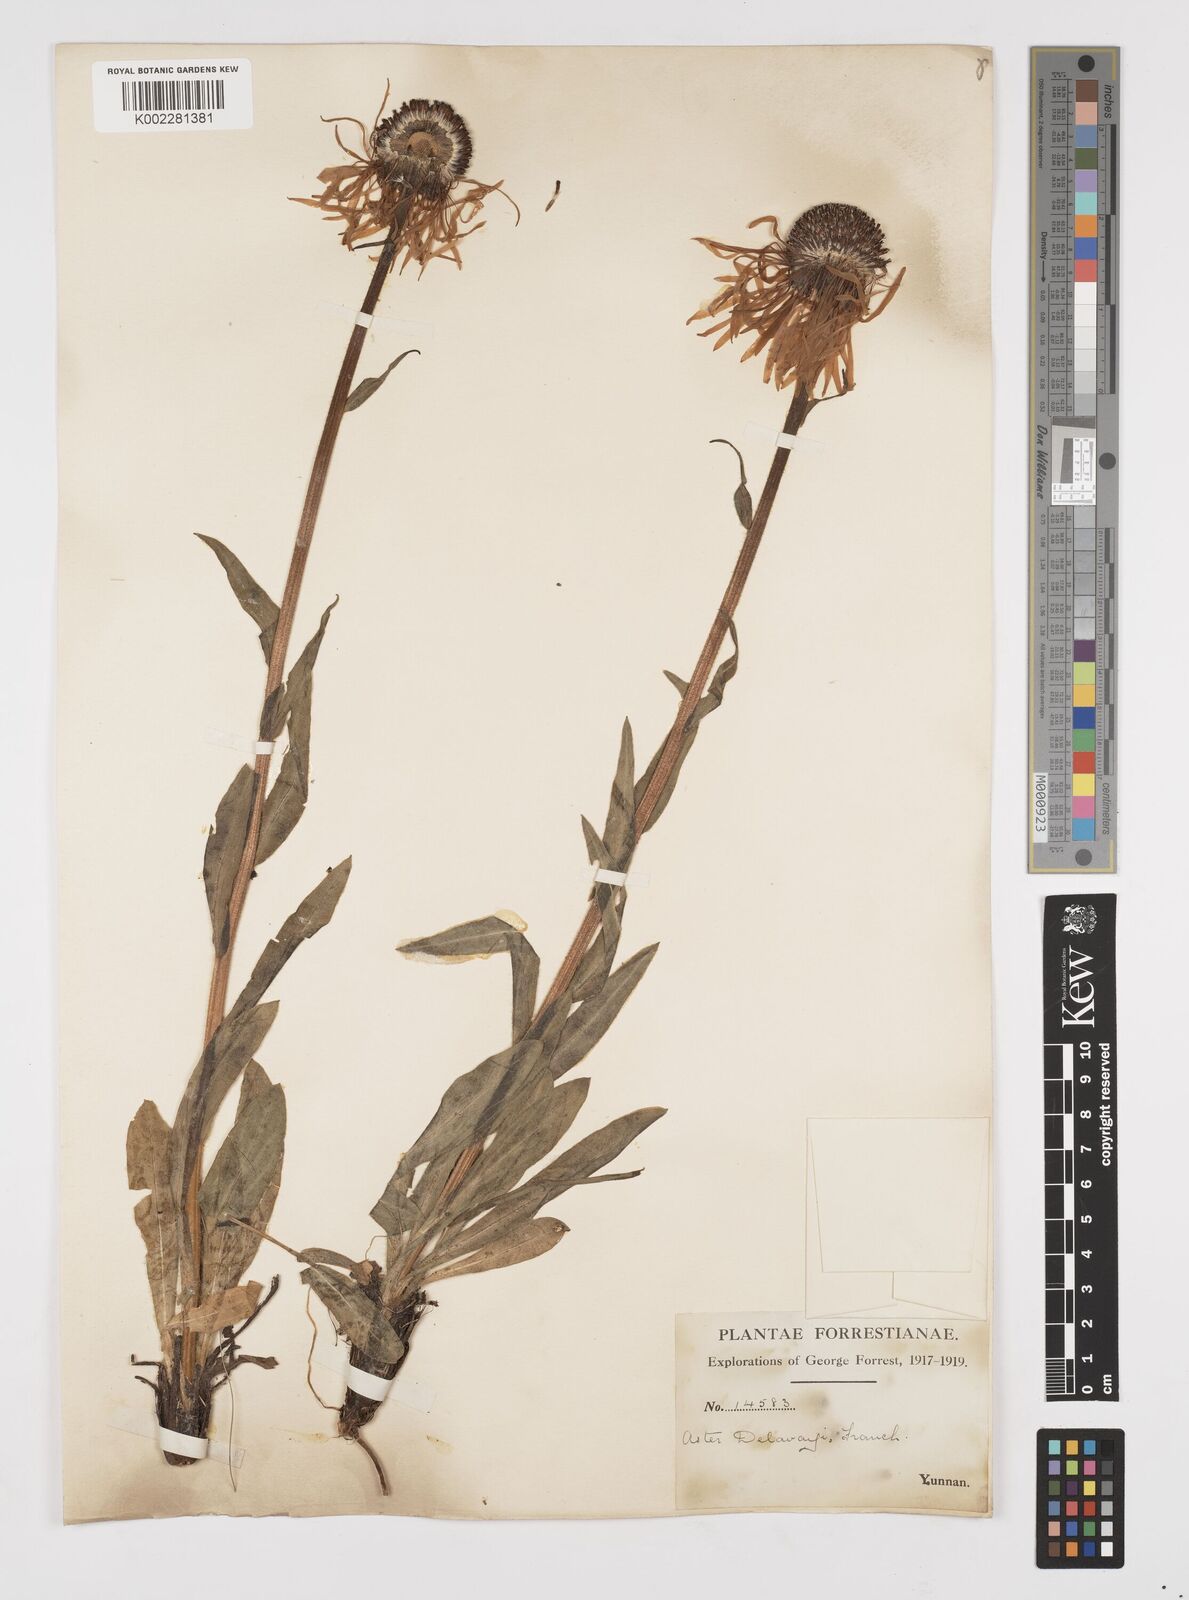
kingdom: Plantae
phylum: Tracheophyta
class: Magnoliopsida
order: Asterales
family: Asteraceae
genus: Tibetiodes
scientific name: Tibetiodes diplostephioides
